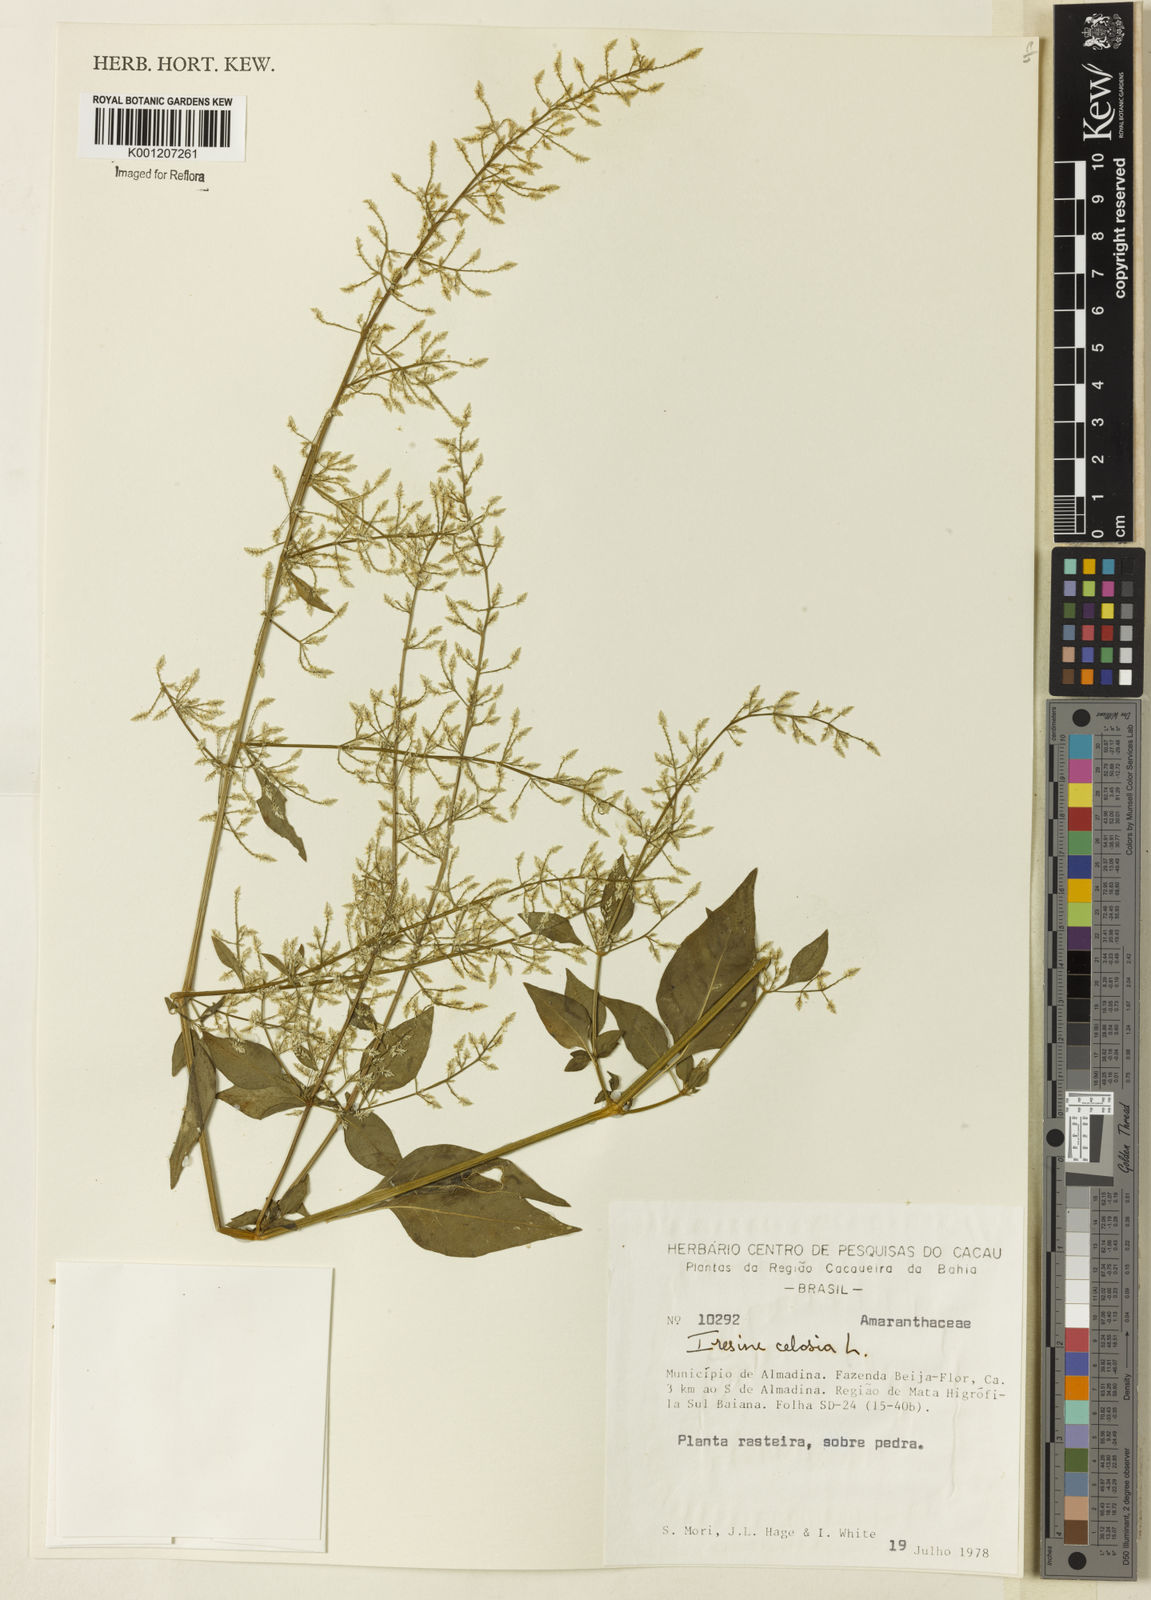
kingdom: Plantae
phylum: Tracheophyta
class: Magnoliopsida
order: Caryophyllales
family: Amaranthaceae
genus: Iresine
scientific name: Iresine rhizomatosa
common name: Juda's-bush
